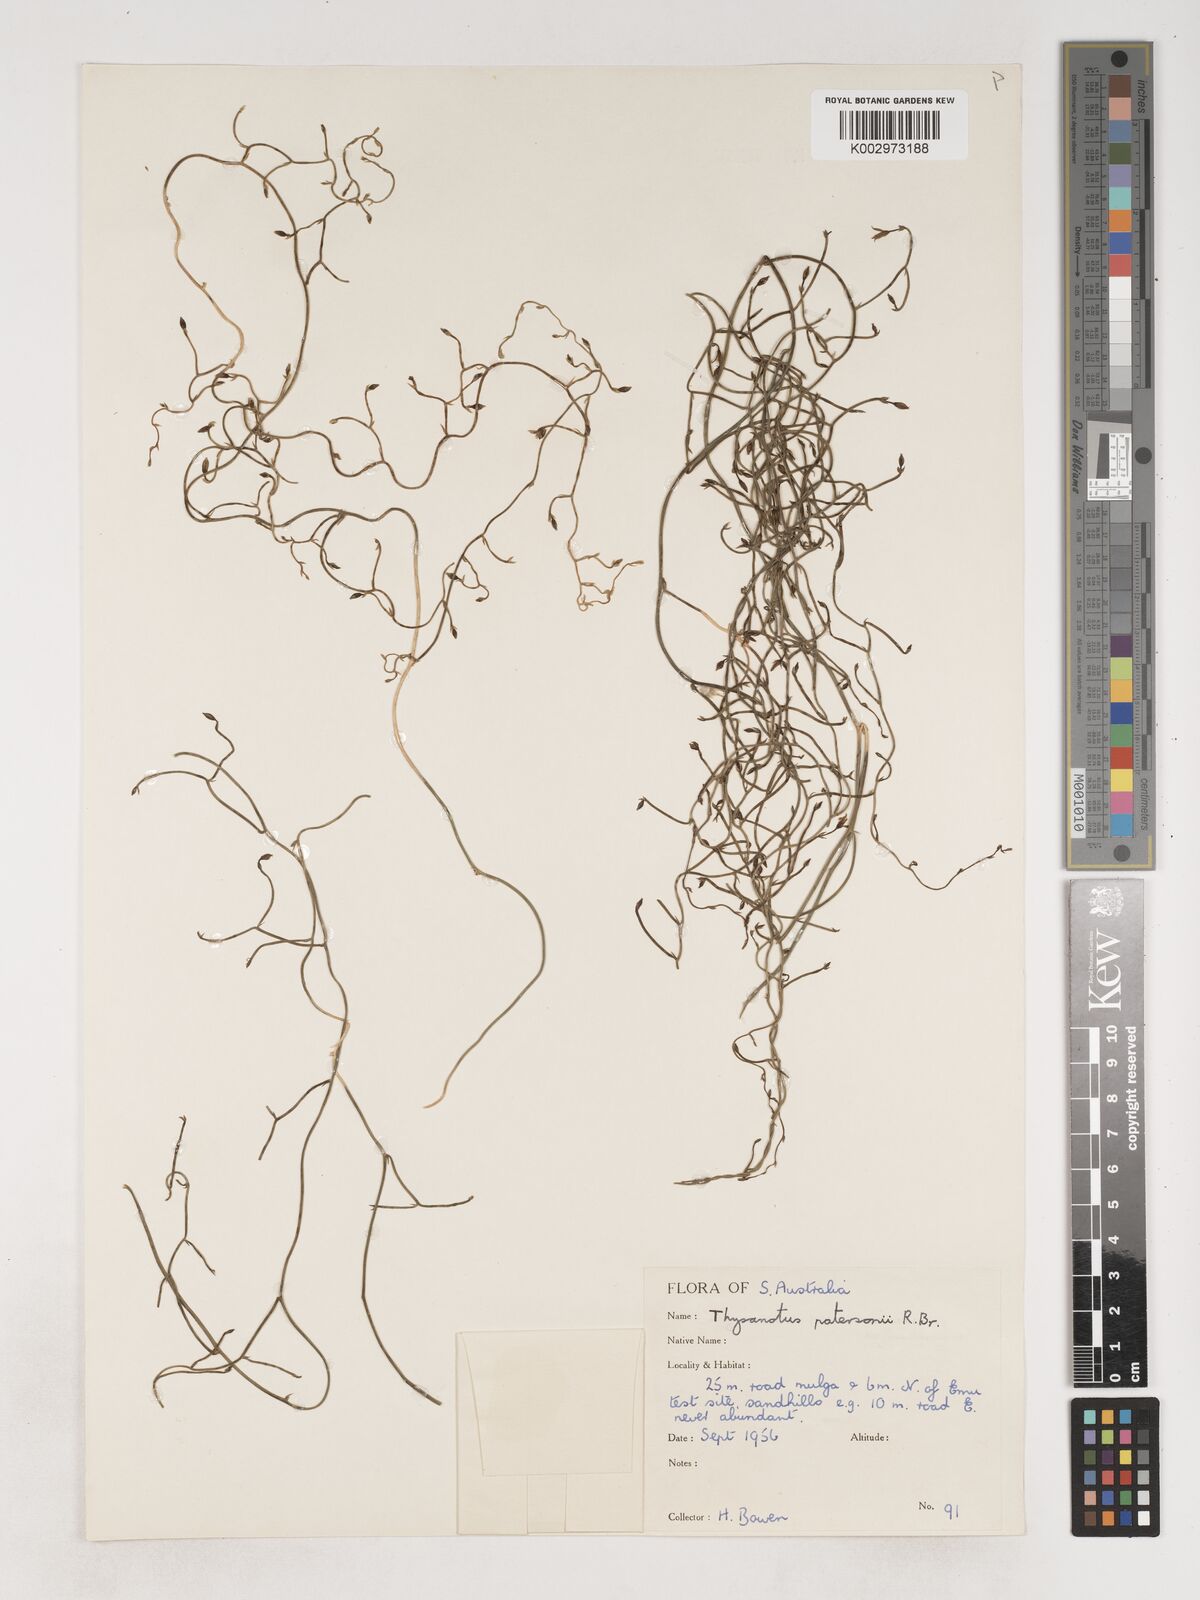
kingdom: Plantae
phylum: Tracheophyta
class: Liliopsida
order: Asparagales
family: Asparagaceae
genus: Thysanotus
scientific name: Thysanotus patersonii
